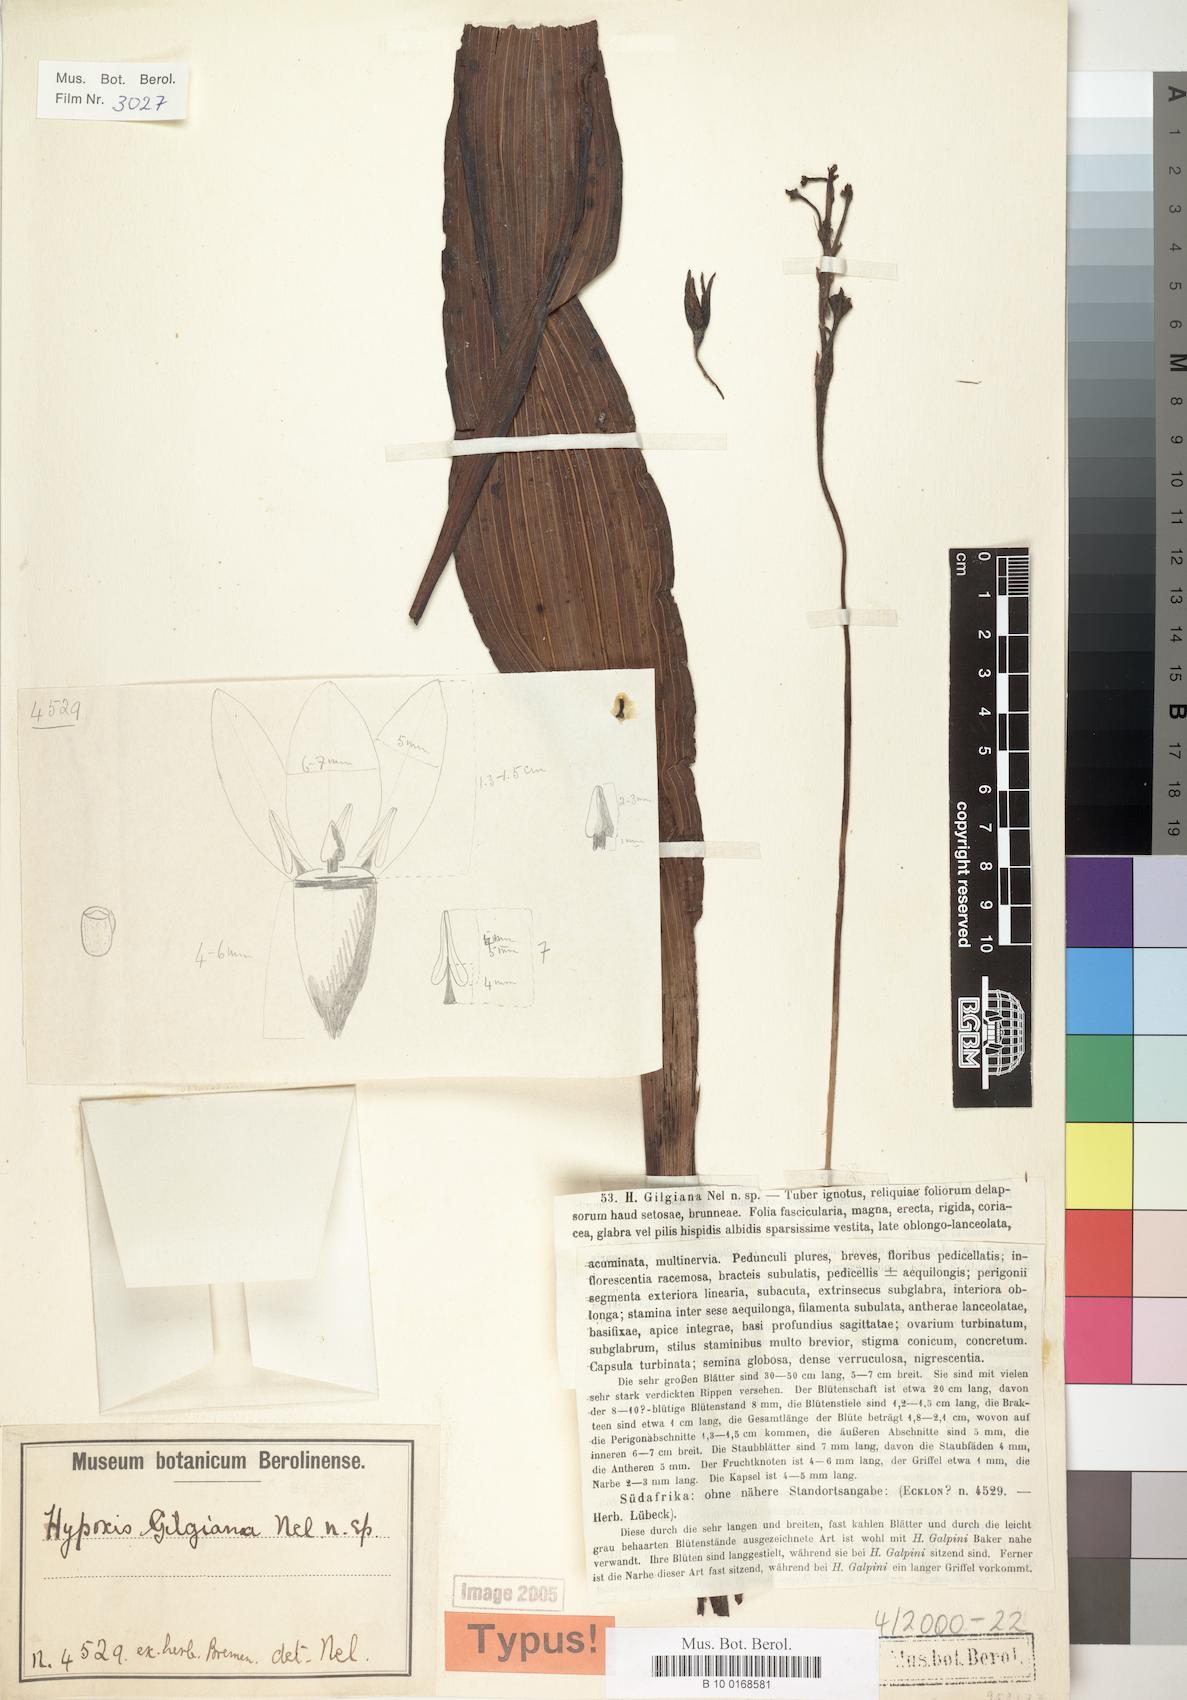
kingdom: Plantae
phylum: Tracheophyta
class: Liliopsida
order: Asparagales
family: Hypoxidaceae
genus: Hypoxis
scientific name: Hypoxis colchicifolia
